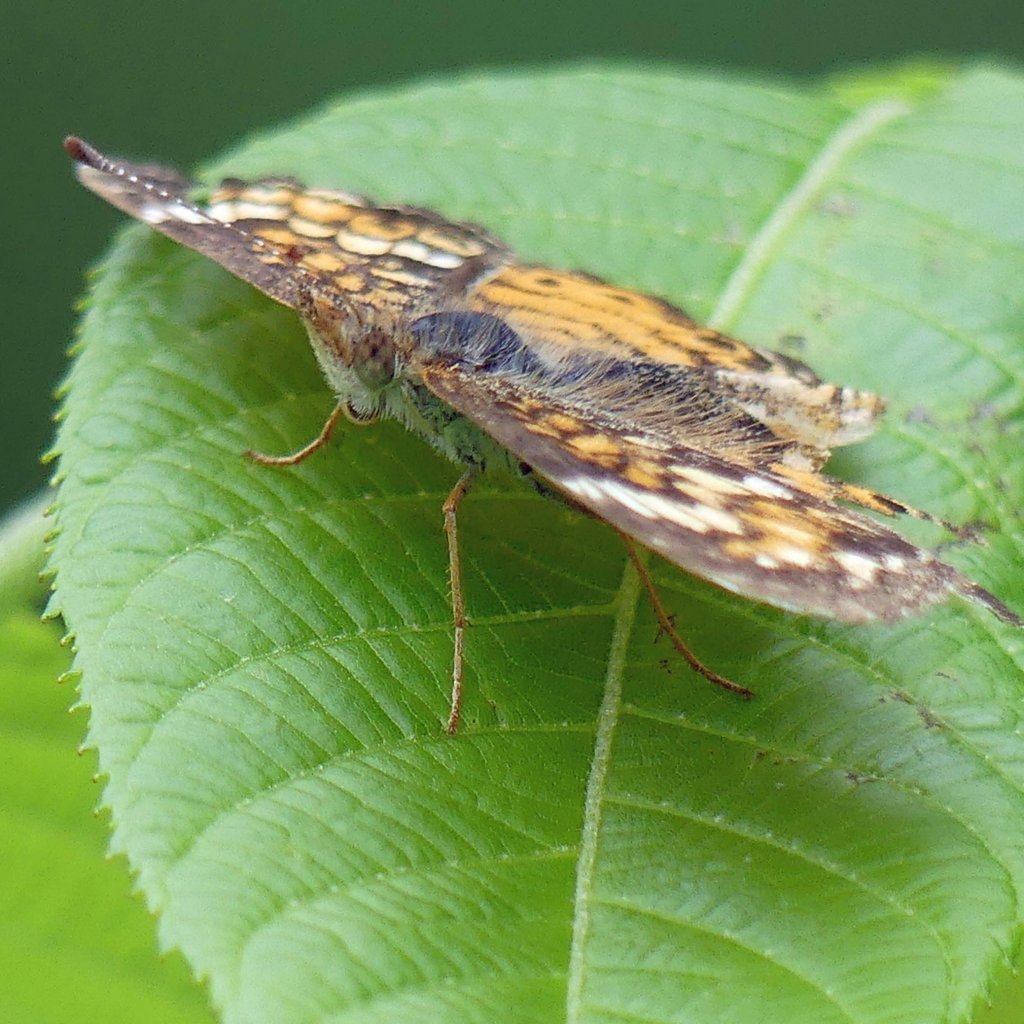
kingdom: Animalia
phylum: Arthropoda
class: Insecta
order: Lepidoptera
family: Nymphalidae
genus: Phyciodes
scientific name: Phyciodes tharos
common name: Pearl Crescent
